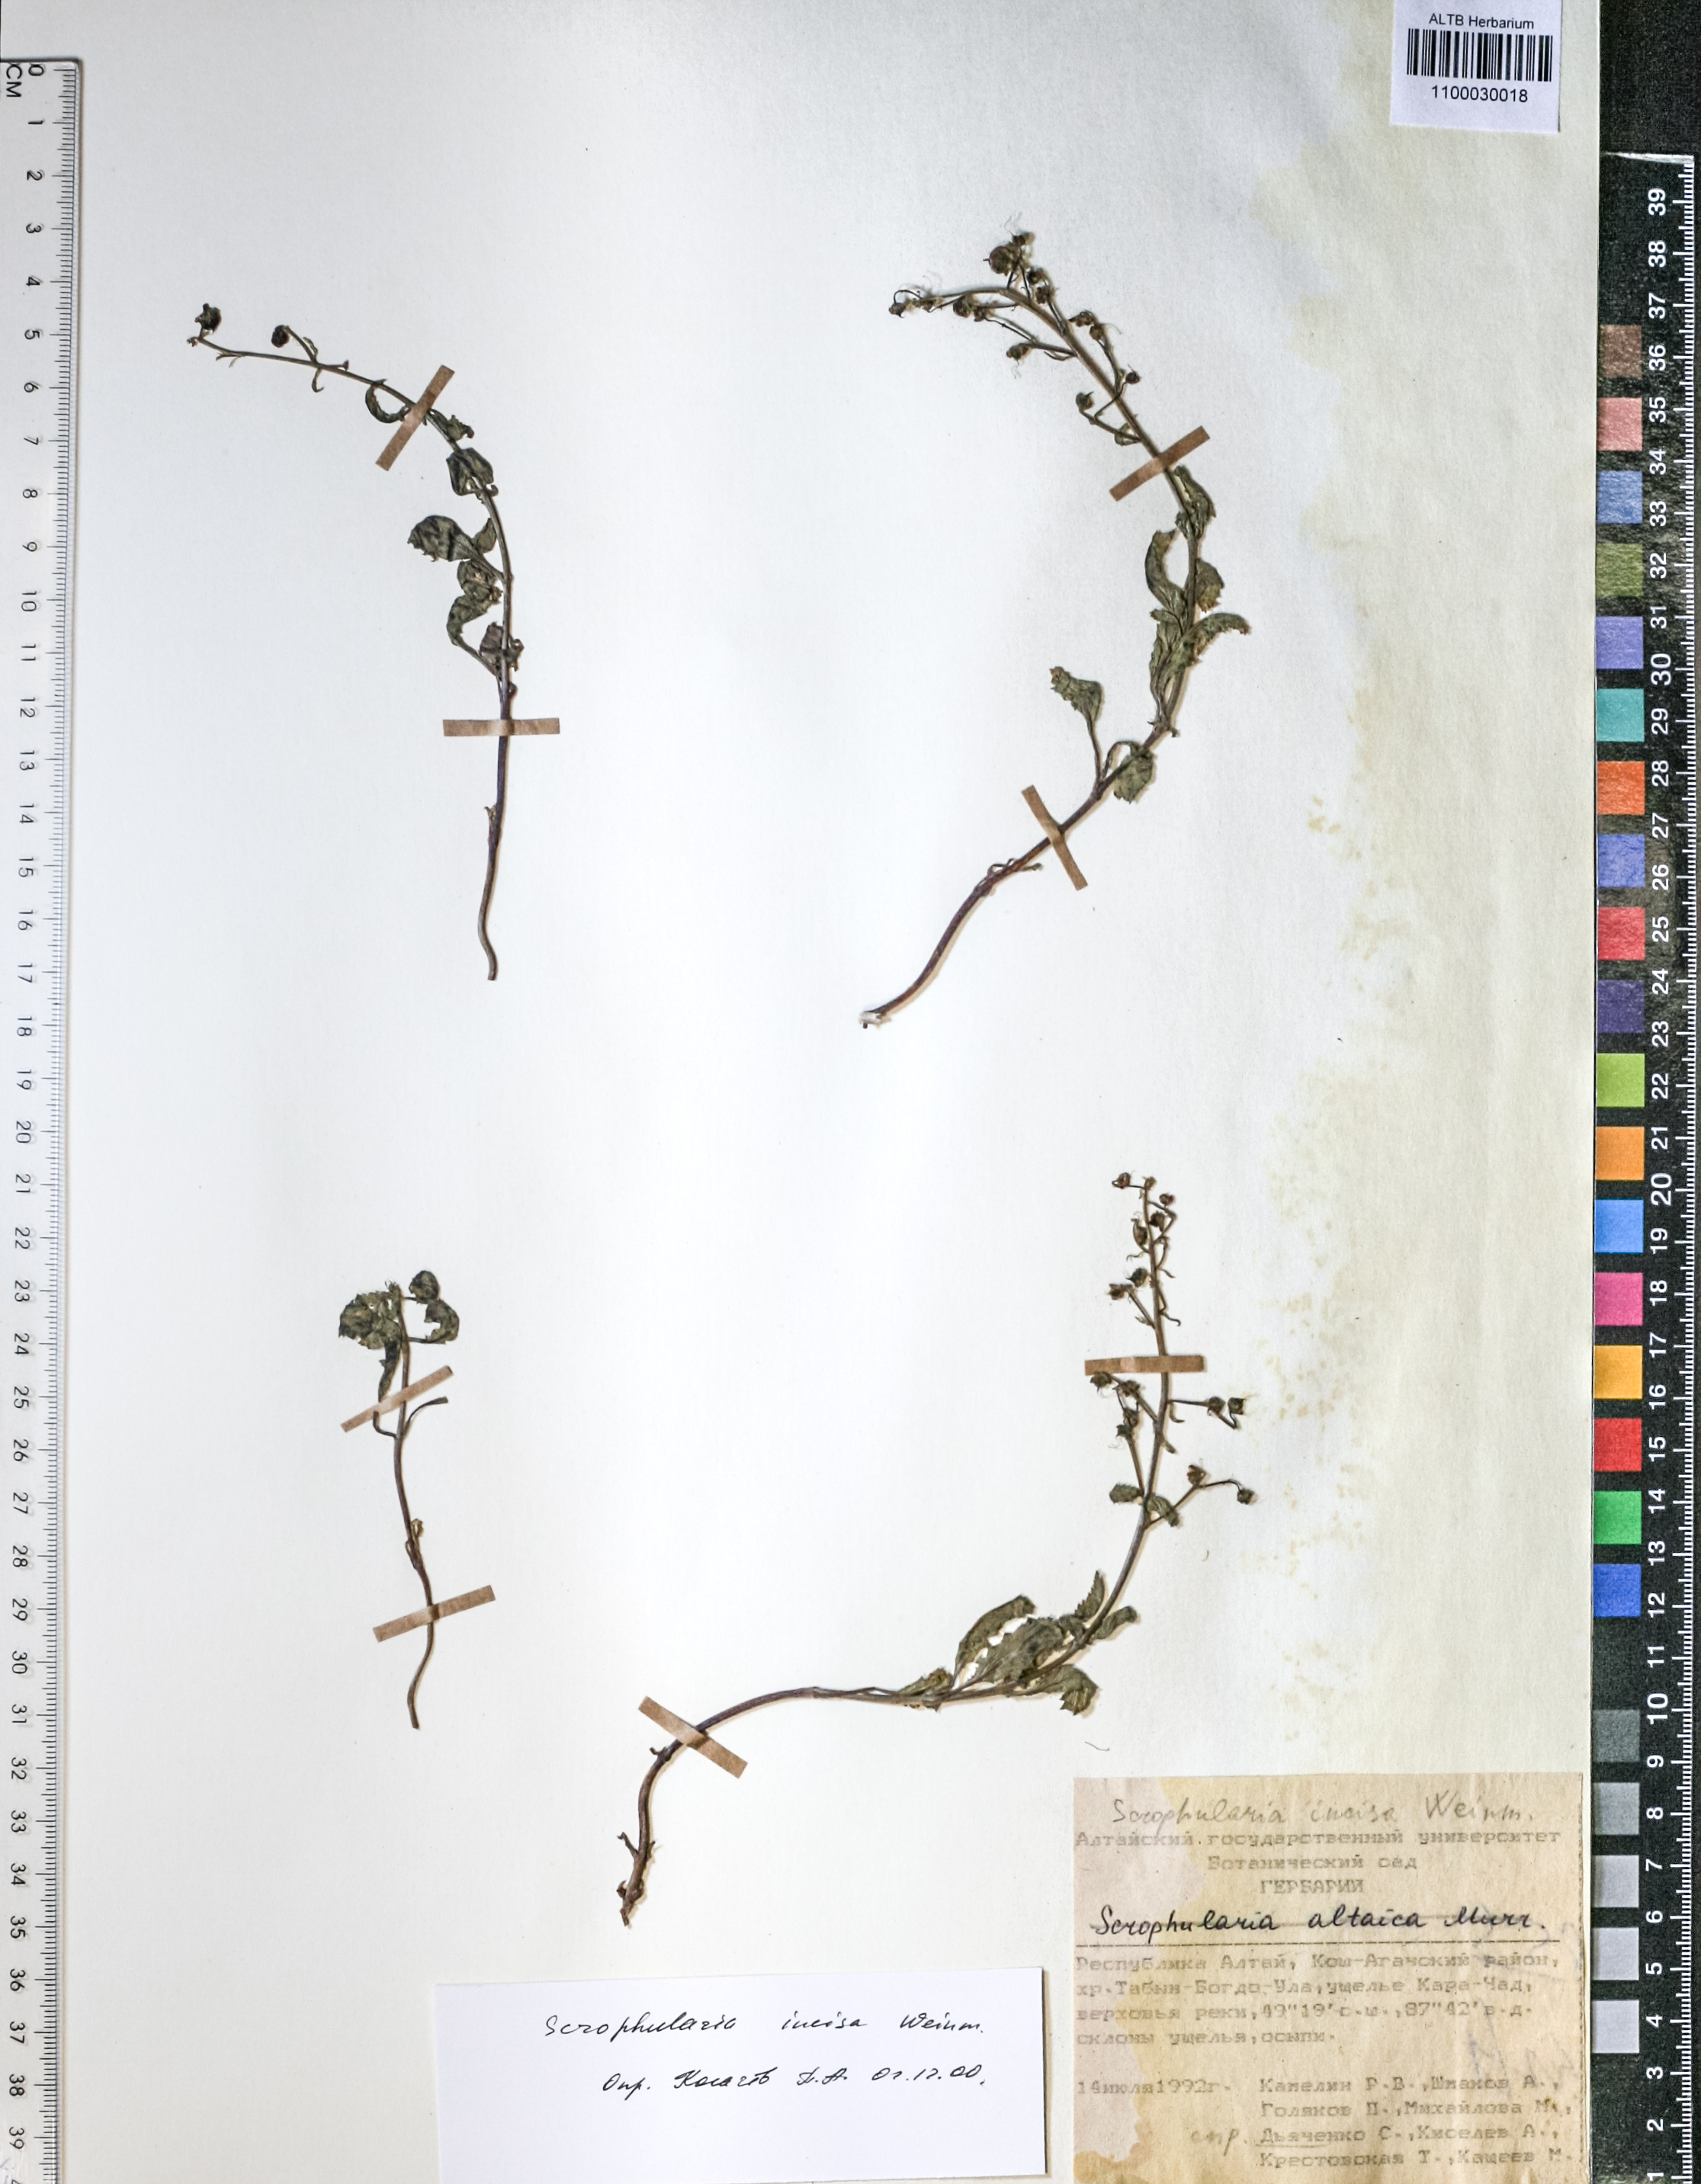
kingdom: Plantae
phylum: Tracheophyta
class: Magnoliopsida
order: Lamiales
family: Scrophulariaceae
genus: Scrophularia
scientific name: Scrophularia incisa
